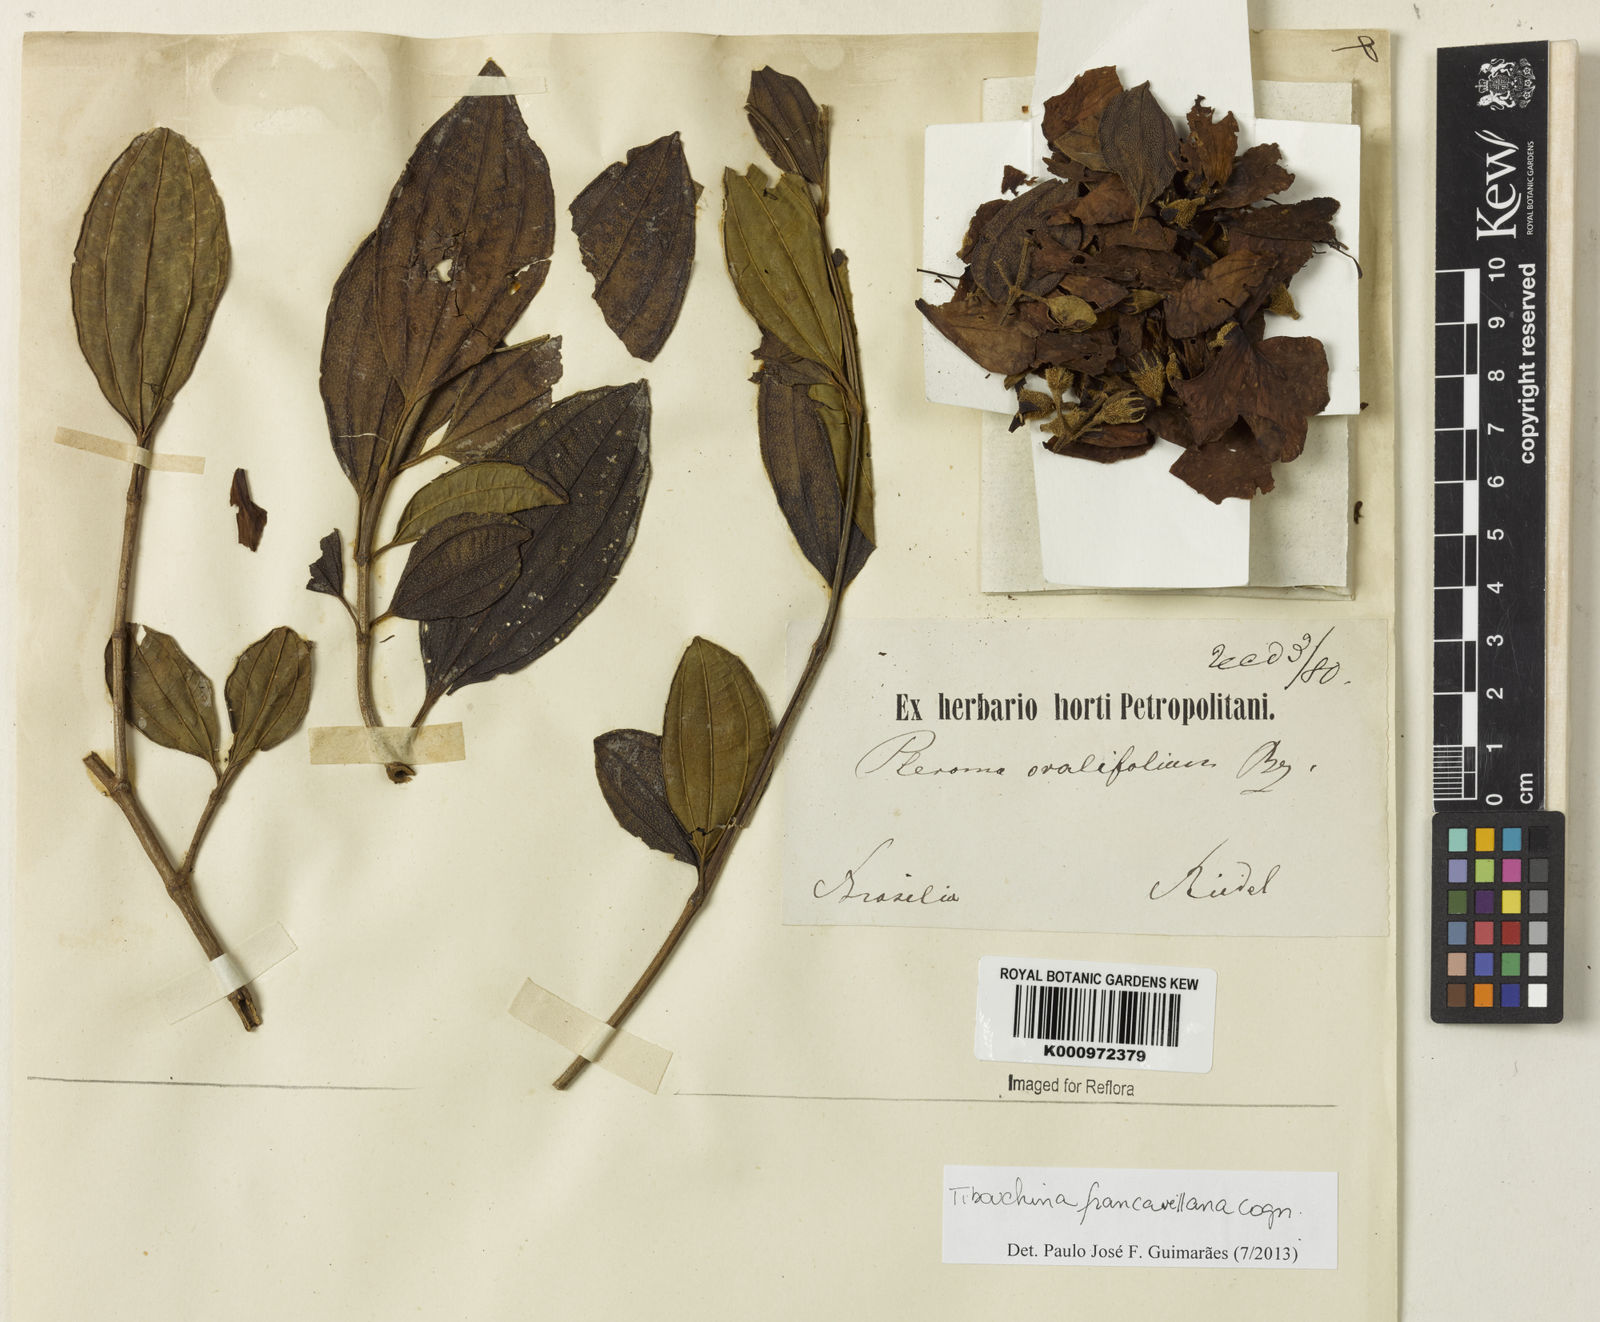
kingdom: Plantae
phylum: Tracheophyta
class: Magnoliopsida
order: Myrtales
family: Melastomataceae
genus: Pleroma
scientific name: Pleroma francavillanum
